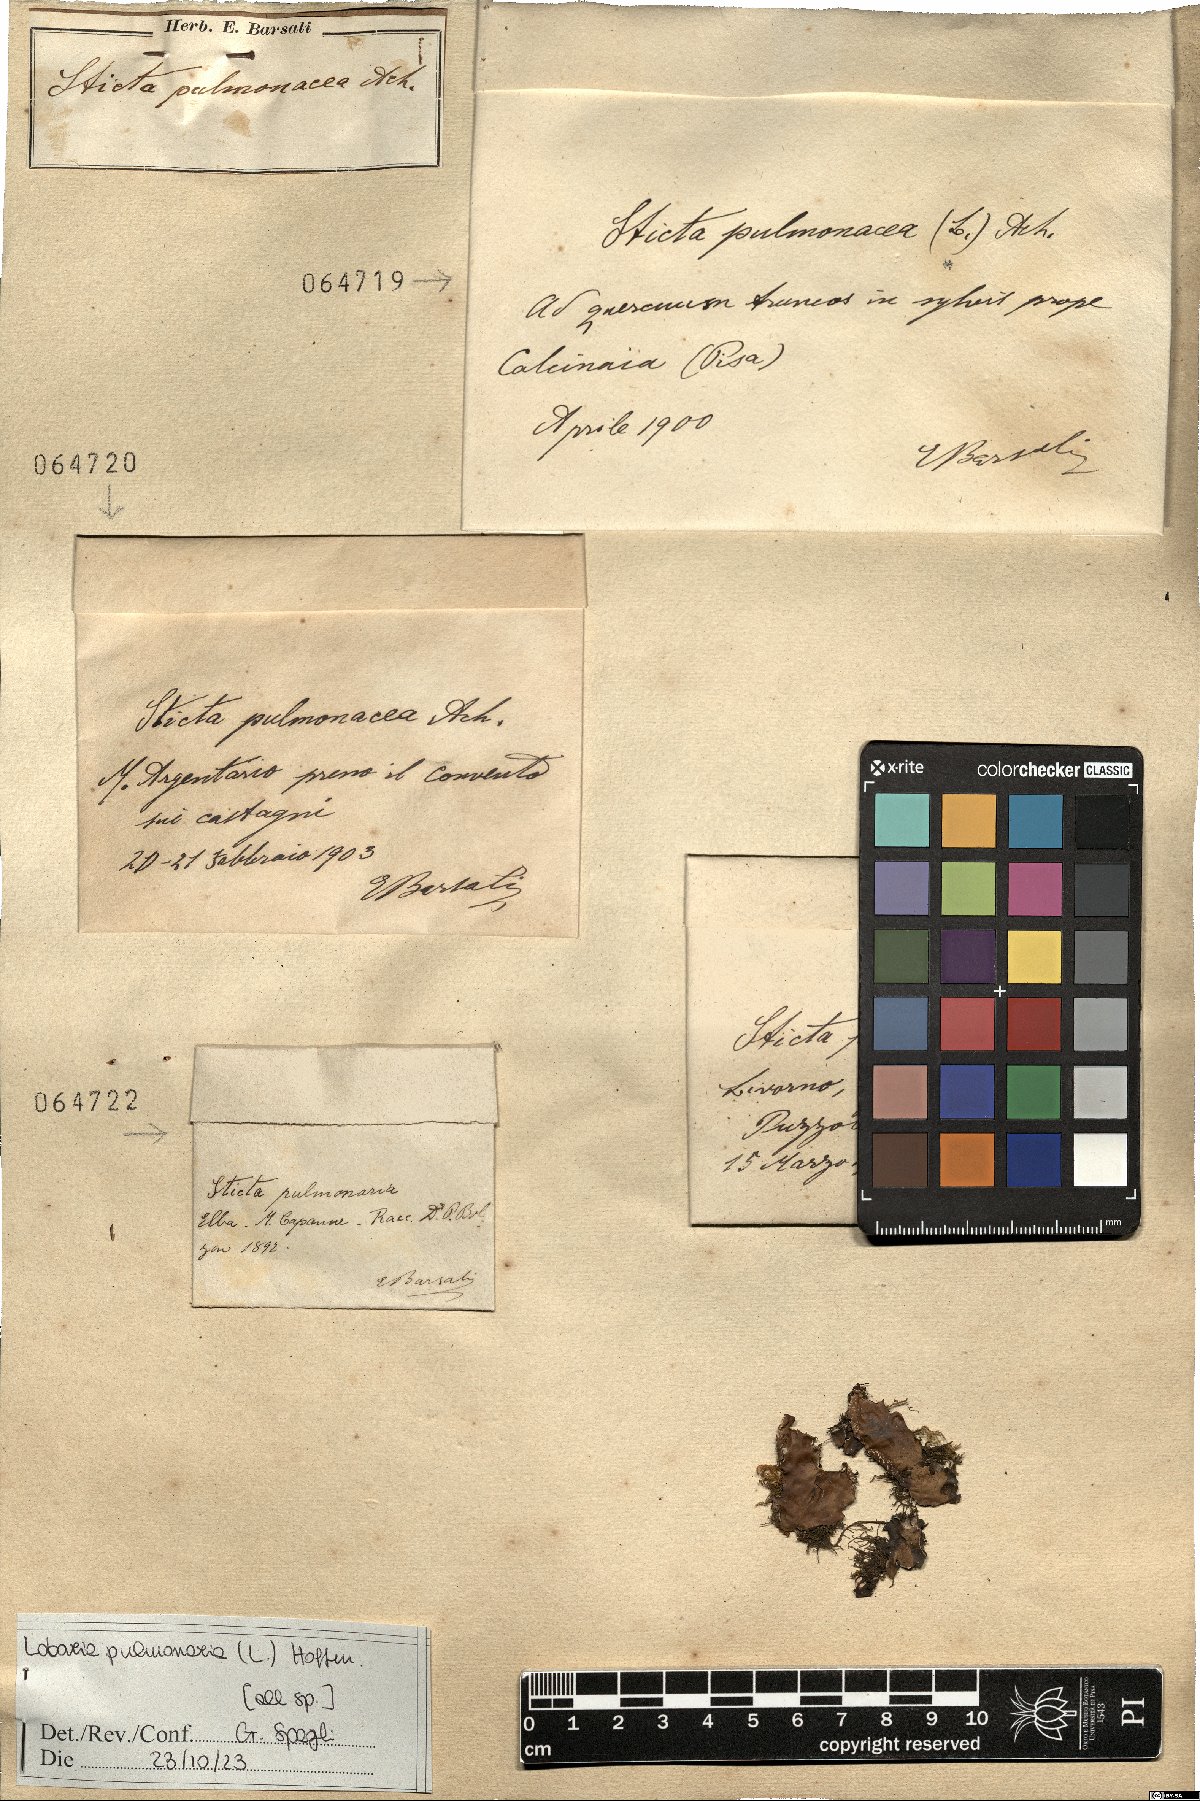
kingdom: Fungi
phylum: Ascomycota
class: Lecanoromycetes
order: Peltigerales
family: Lobariaceae
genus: Lobaria
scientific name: Lobaria pulmonaria
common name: Lungwort
